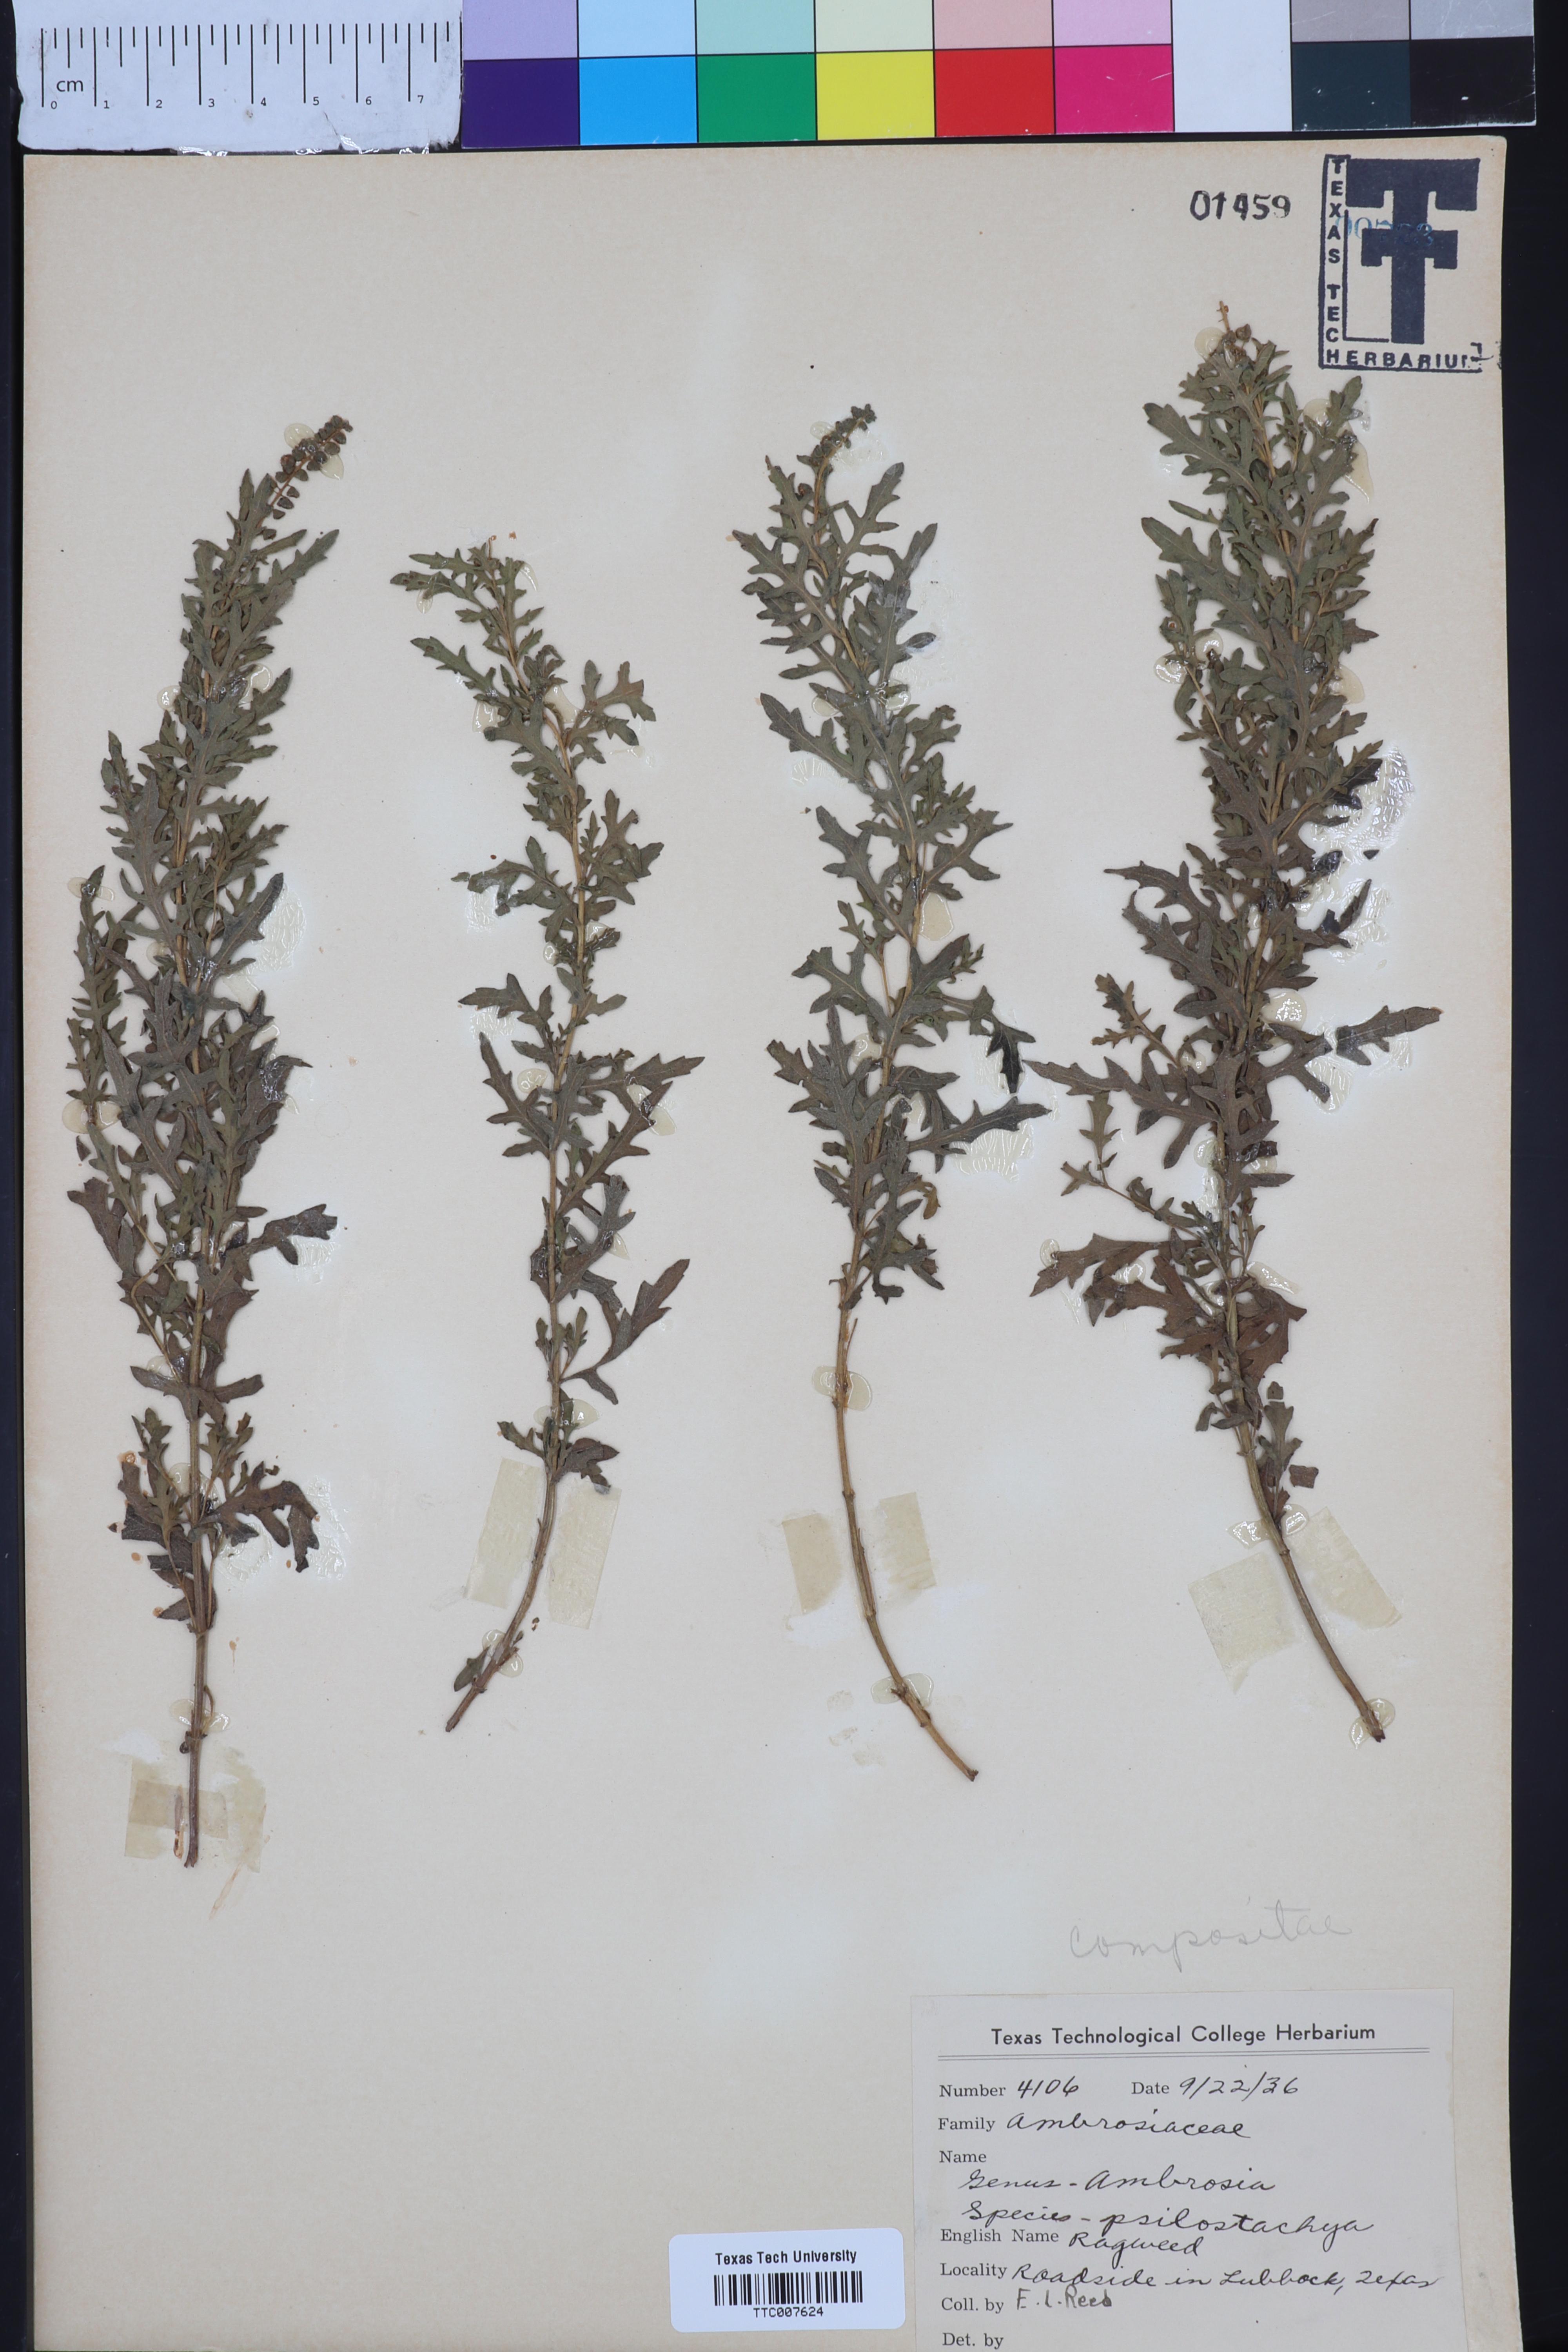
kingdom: Plantae
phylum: Tracheophyta
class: Magnoliopsida
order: Asterales
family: Asteraceae
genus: Ambrosia
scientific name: Ambrosia psilostachya
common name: Perennial ragweed
